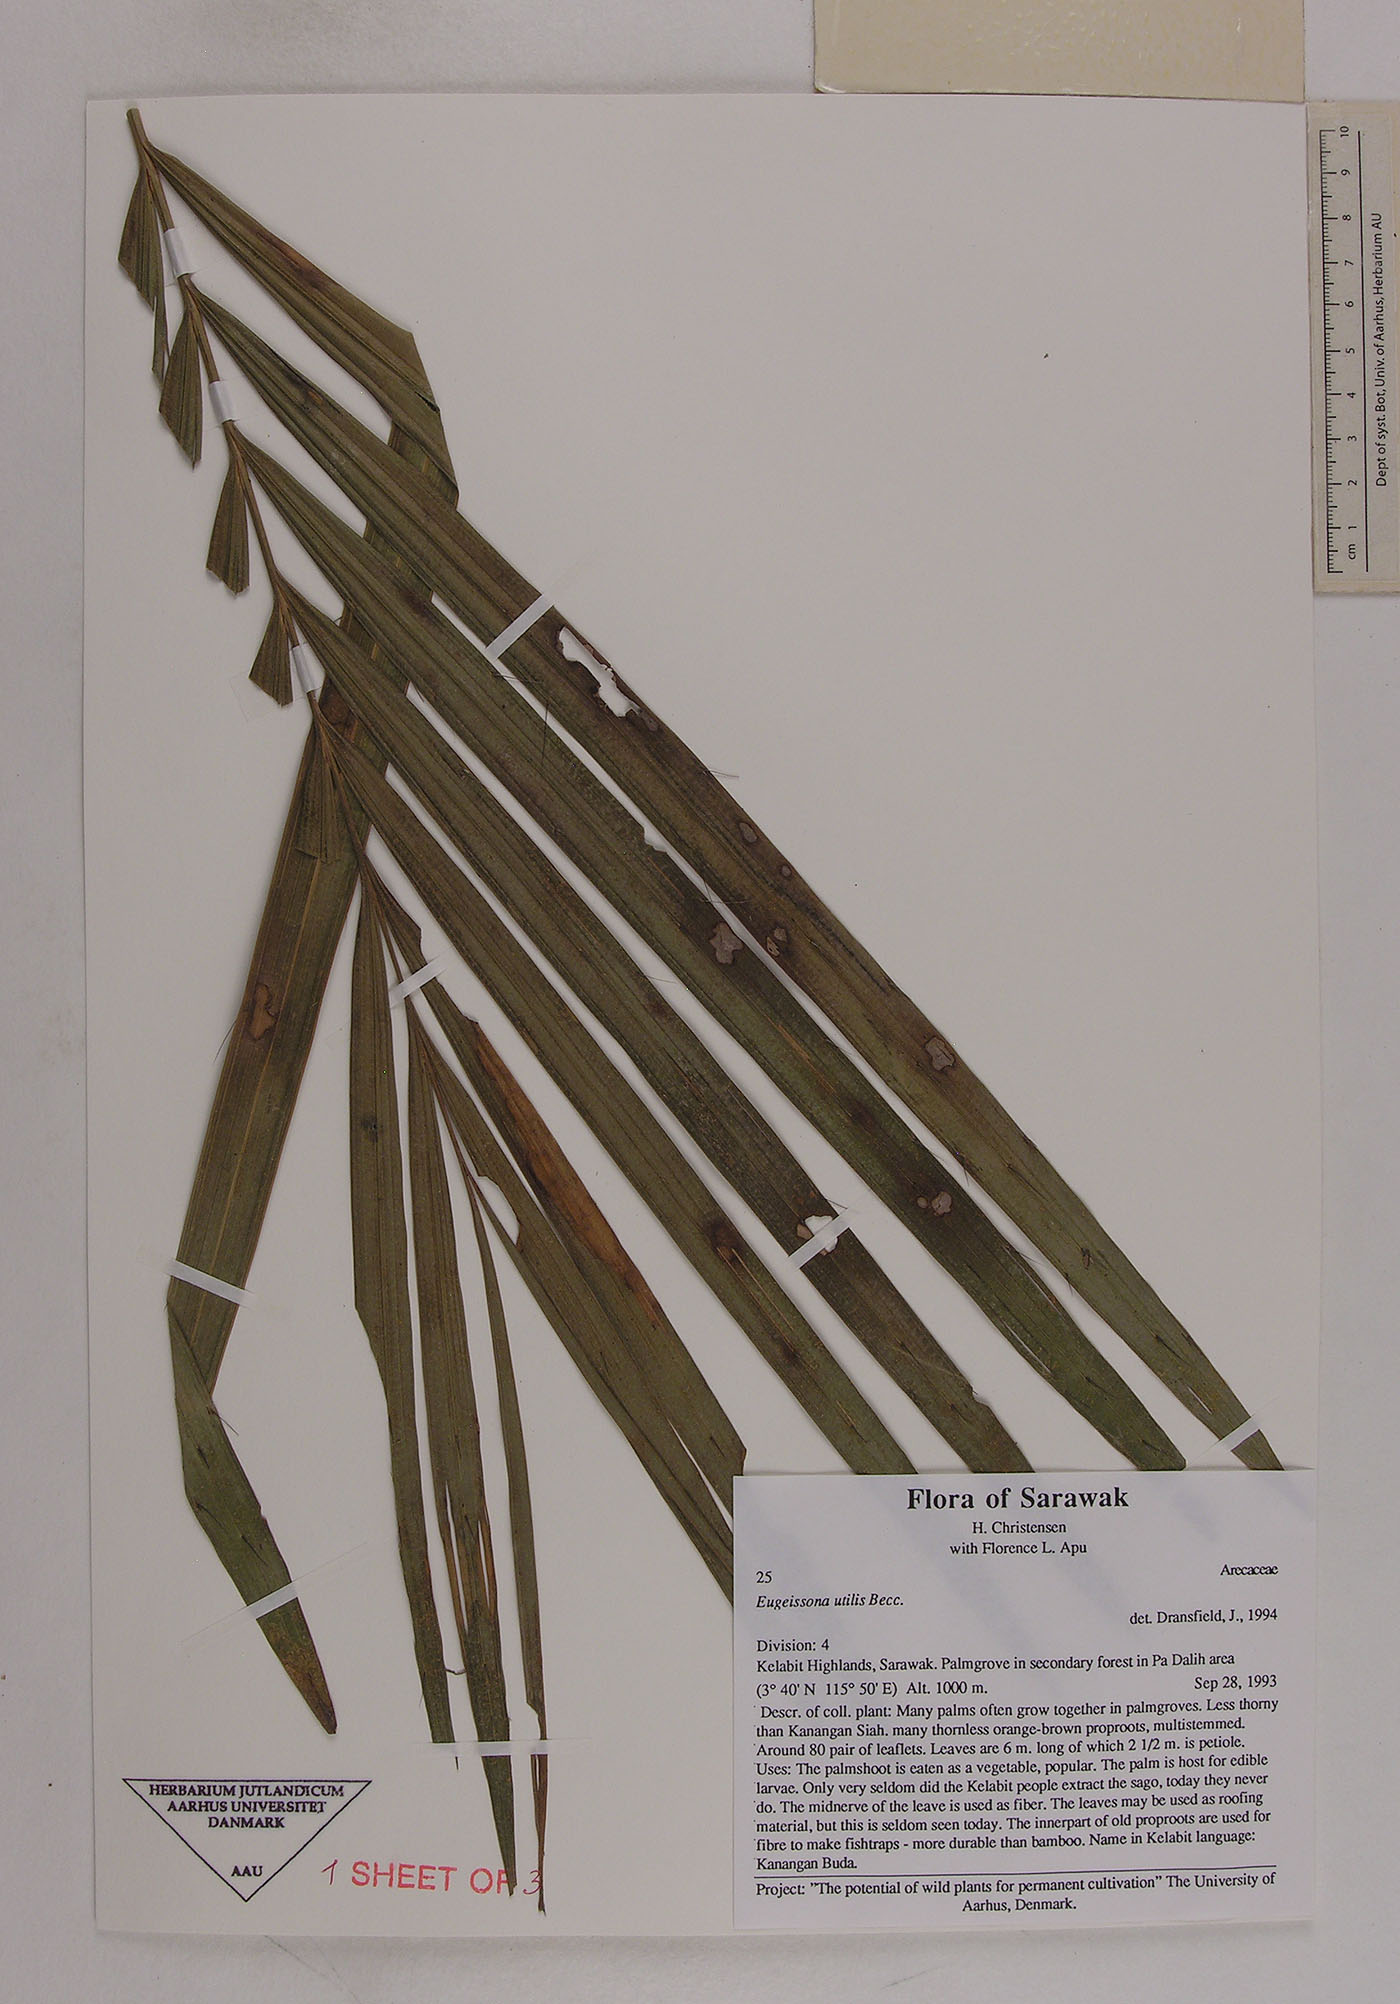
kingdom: Plantae
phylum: Tracheophyta
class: Liliopsida
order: Arecales
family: Arecaceae
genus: Eugeissona
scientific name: Eugeissona utilis
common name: Wild bornean sago palm
